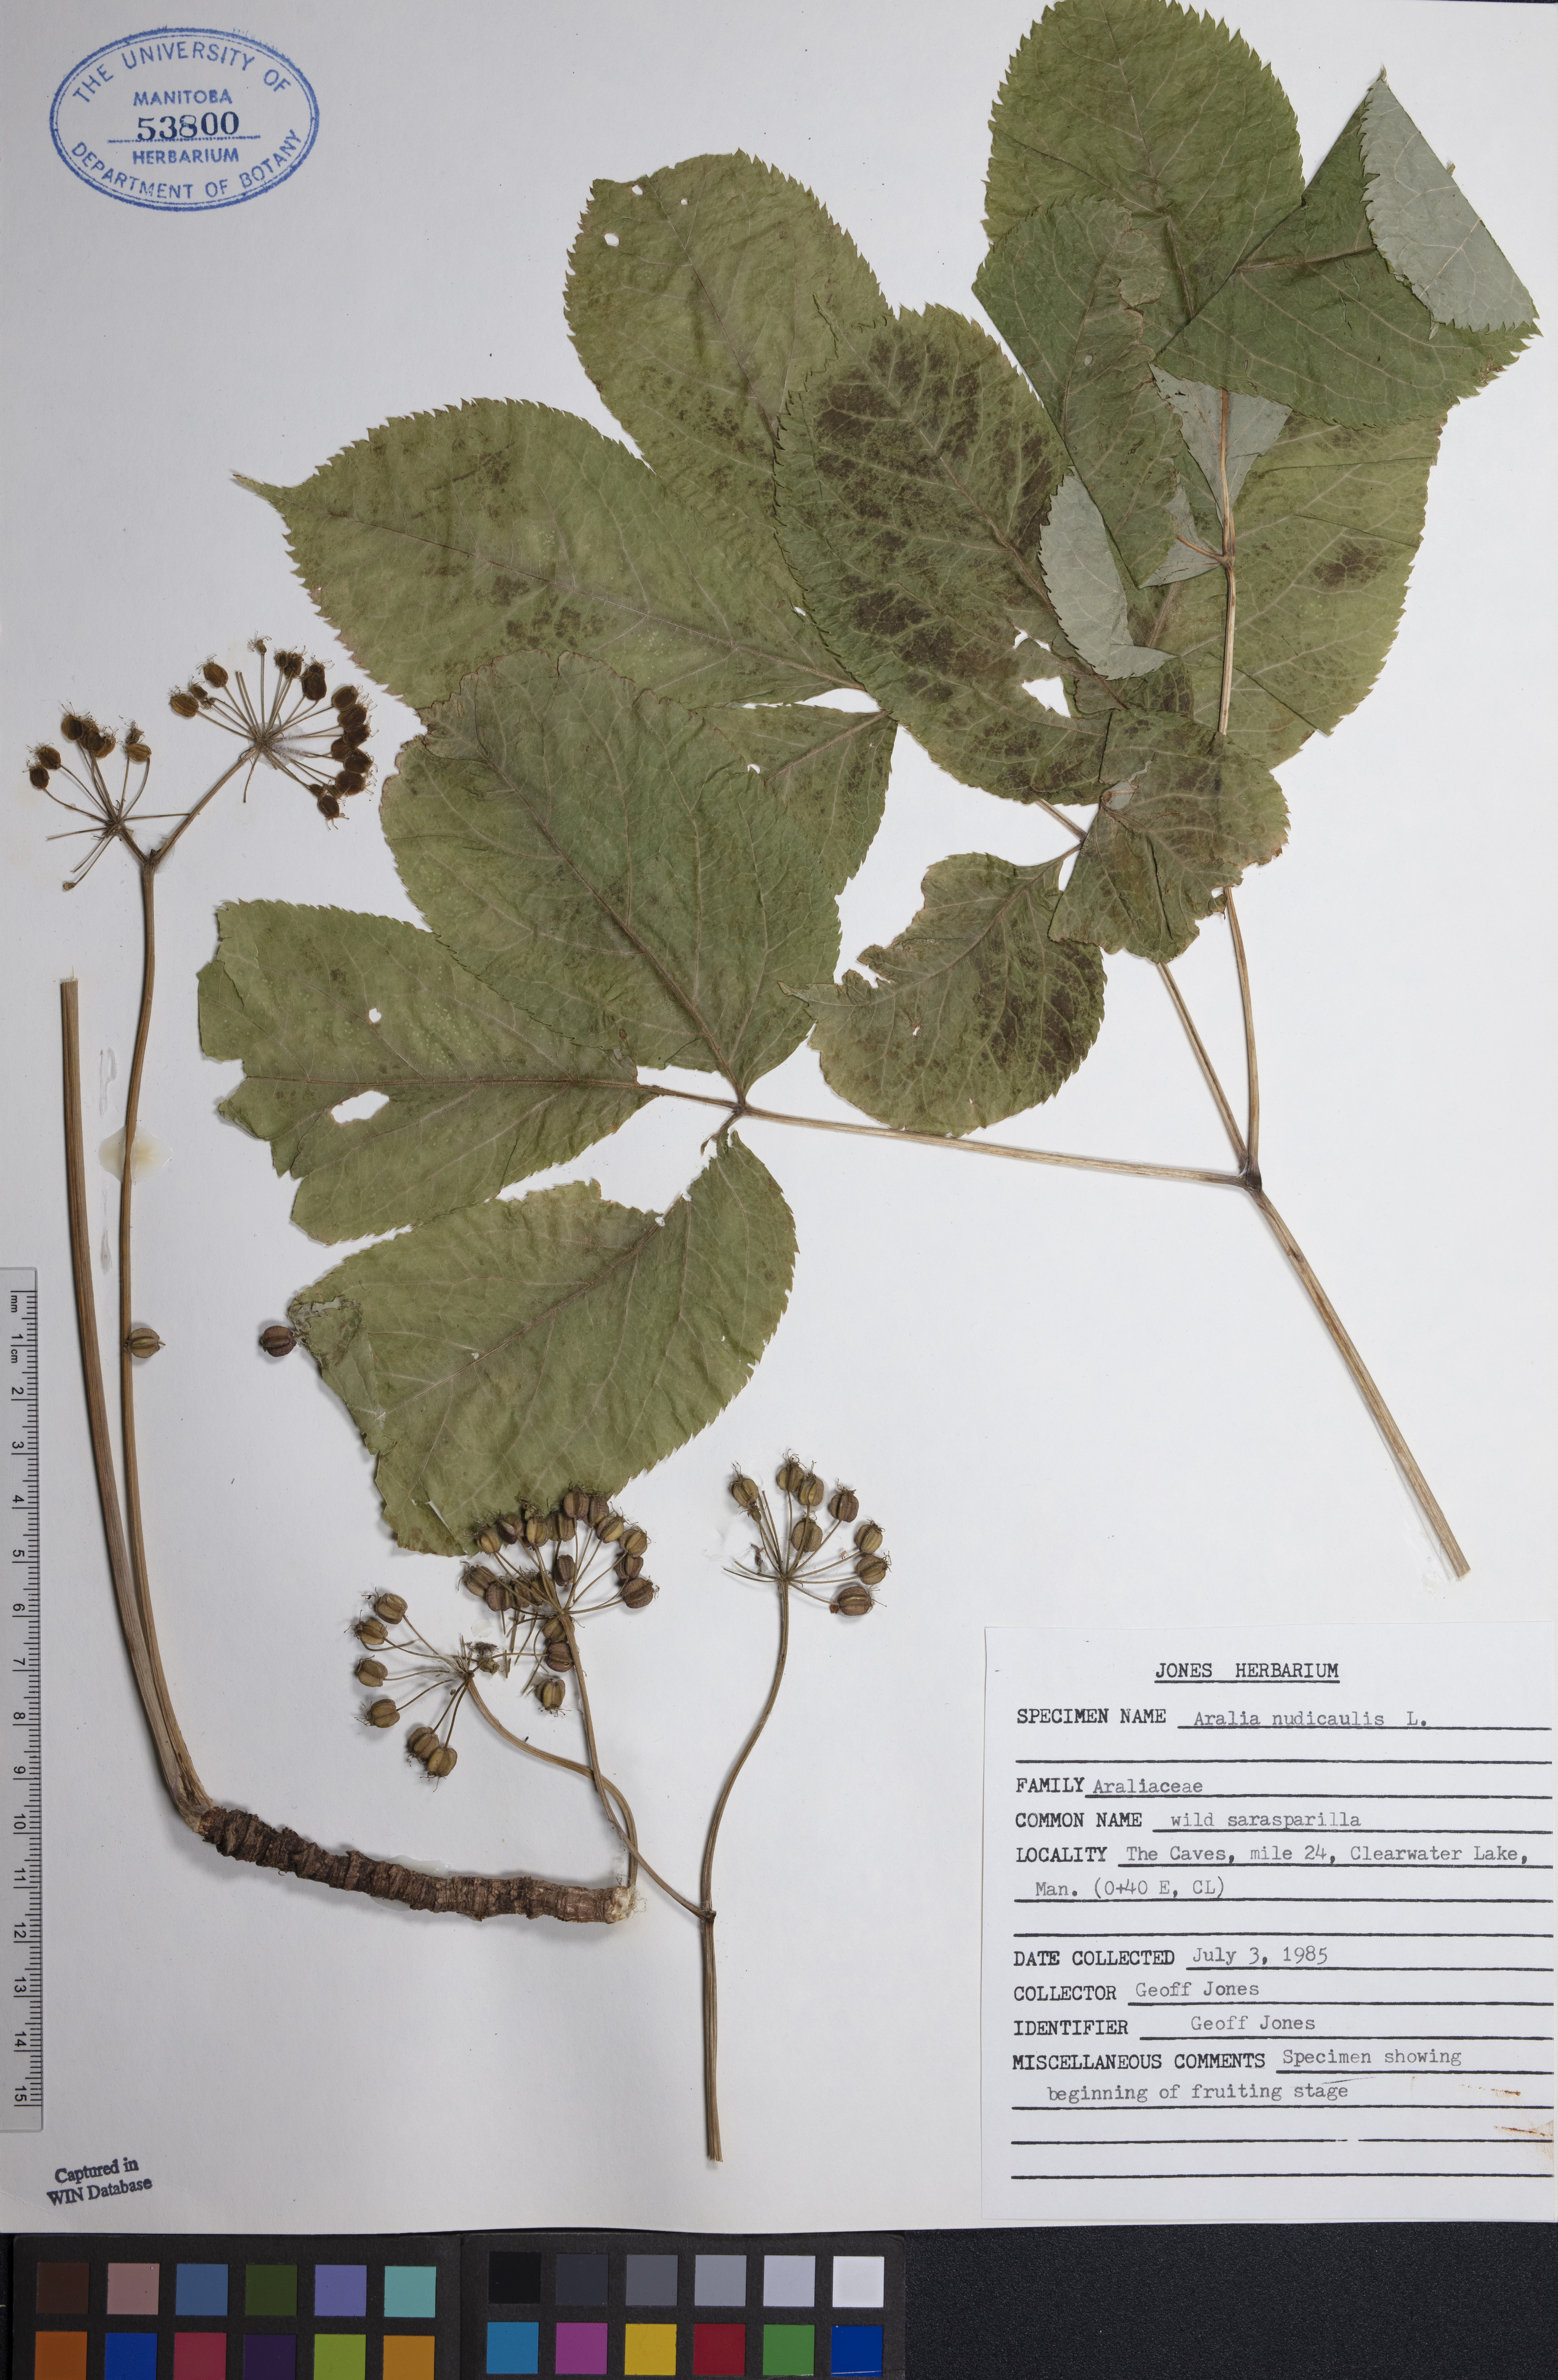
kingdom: Plantae
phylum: Tracheophyta
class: Magnoliopsida
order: Apiales
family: Araliaceae
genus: Aralia
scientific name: Aralia nudicaulis
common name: Wild sarsaparilla
